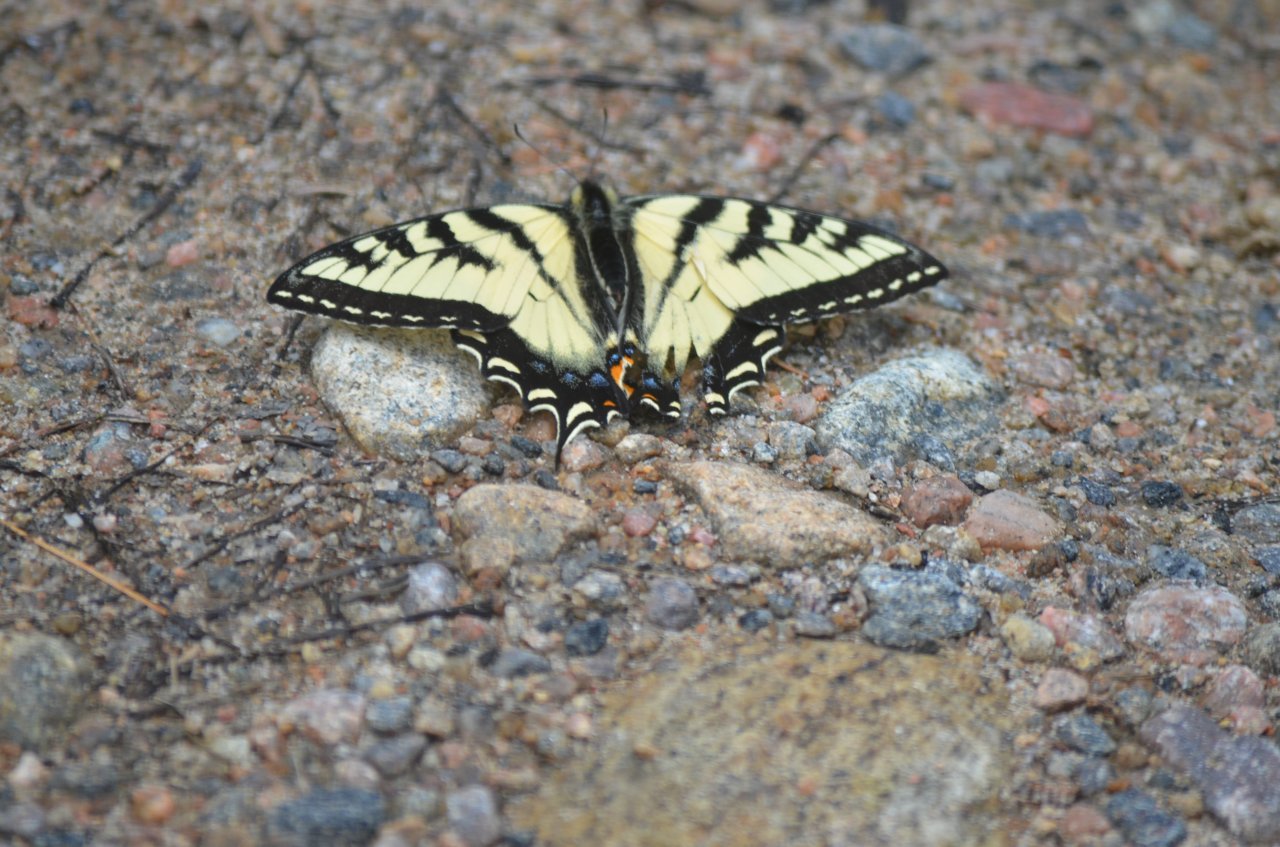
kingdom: Animalia
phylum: Arthropoda
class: Insecta
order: Lepidoptera
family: Papilionidae
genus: Pterourus
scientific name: Pterourus canadensis
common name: Canadian Tiger Swallowtail
